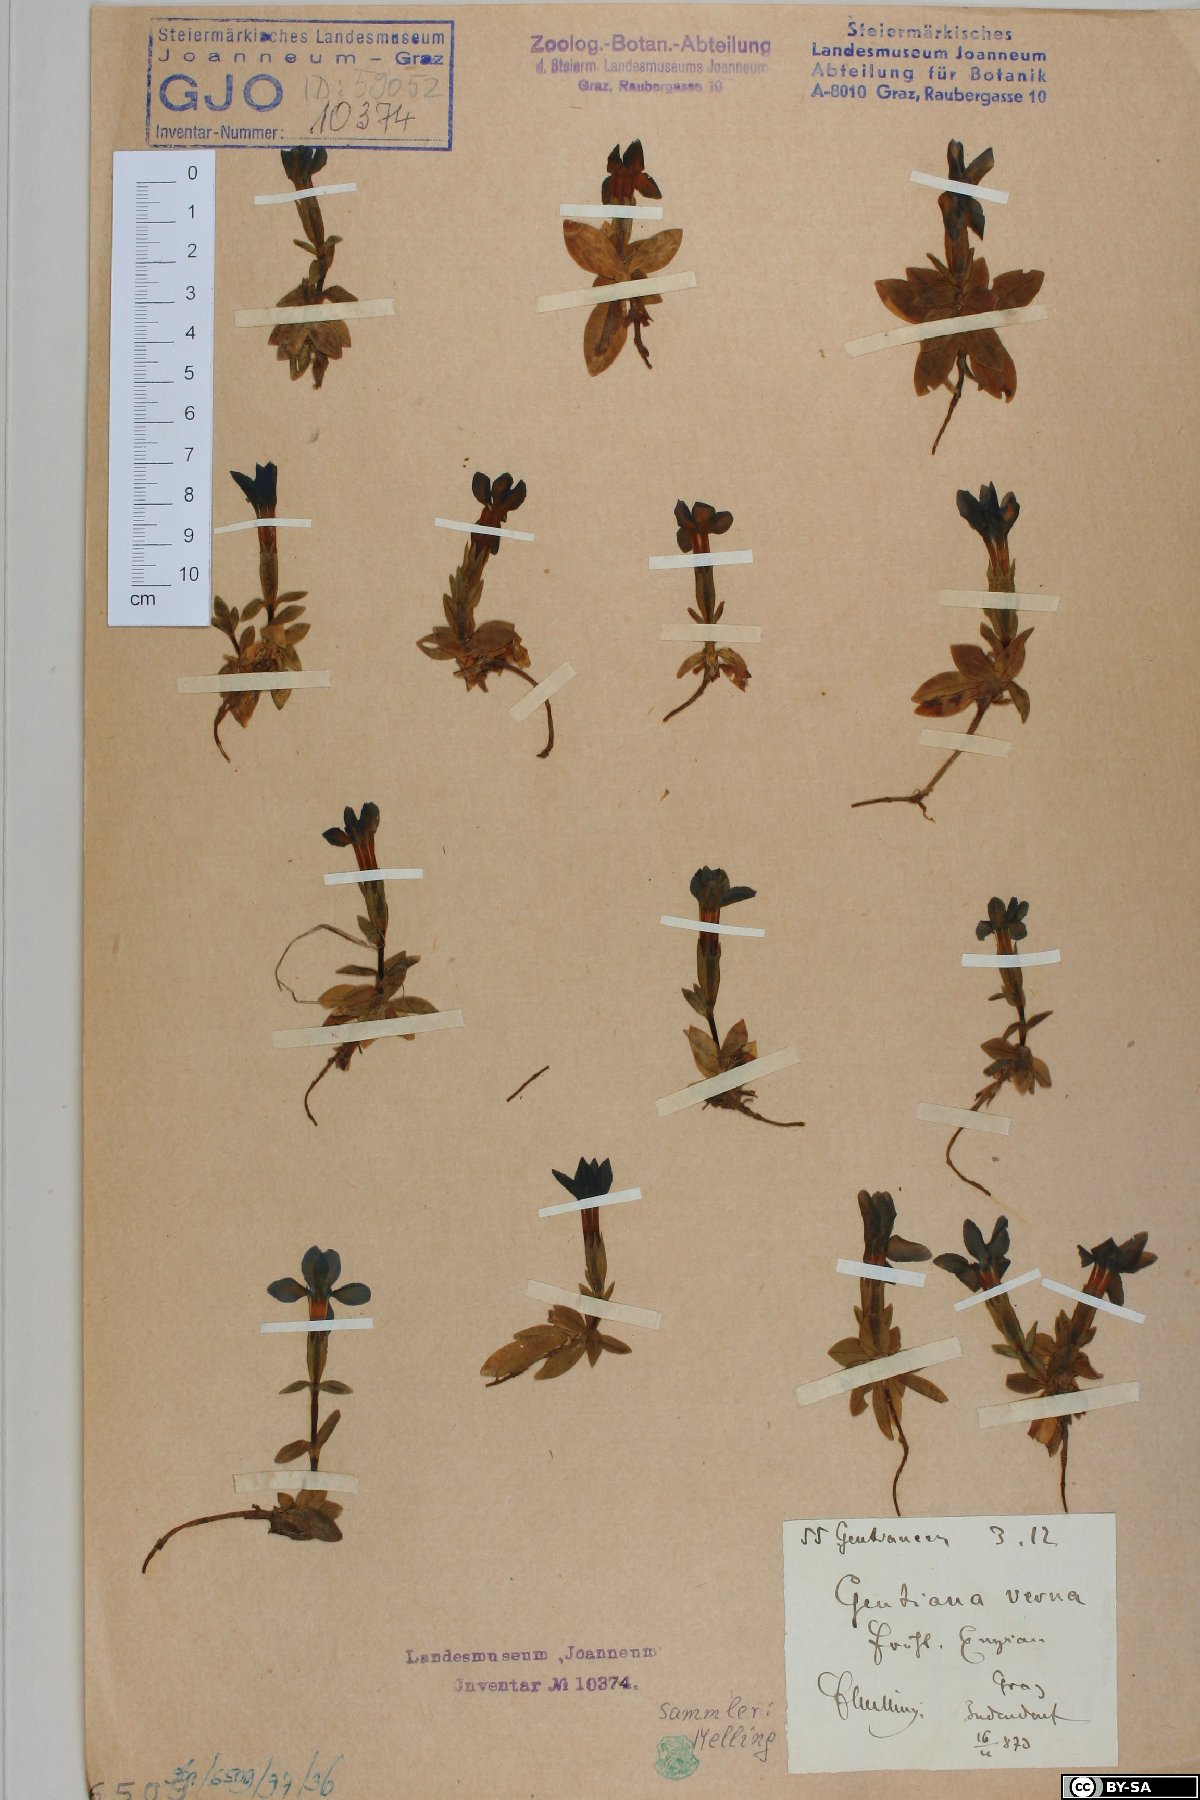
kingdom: Plantae
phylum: Tracheophyta
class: Magnoliopsida
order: Gentianales
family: Gentianaceae
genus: Gentiana
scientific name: Gentiana verna
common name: Spring gentian
